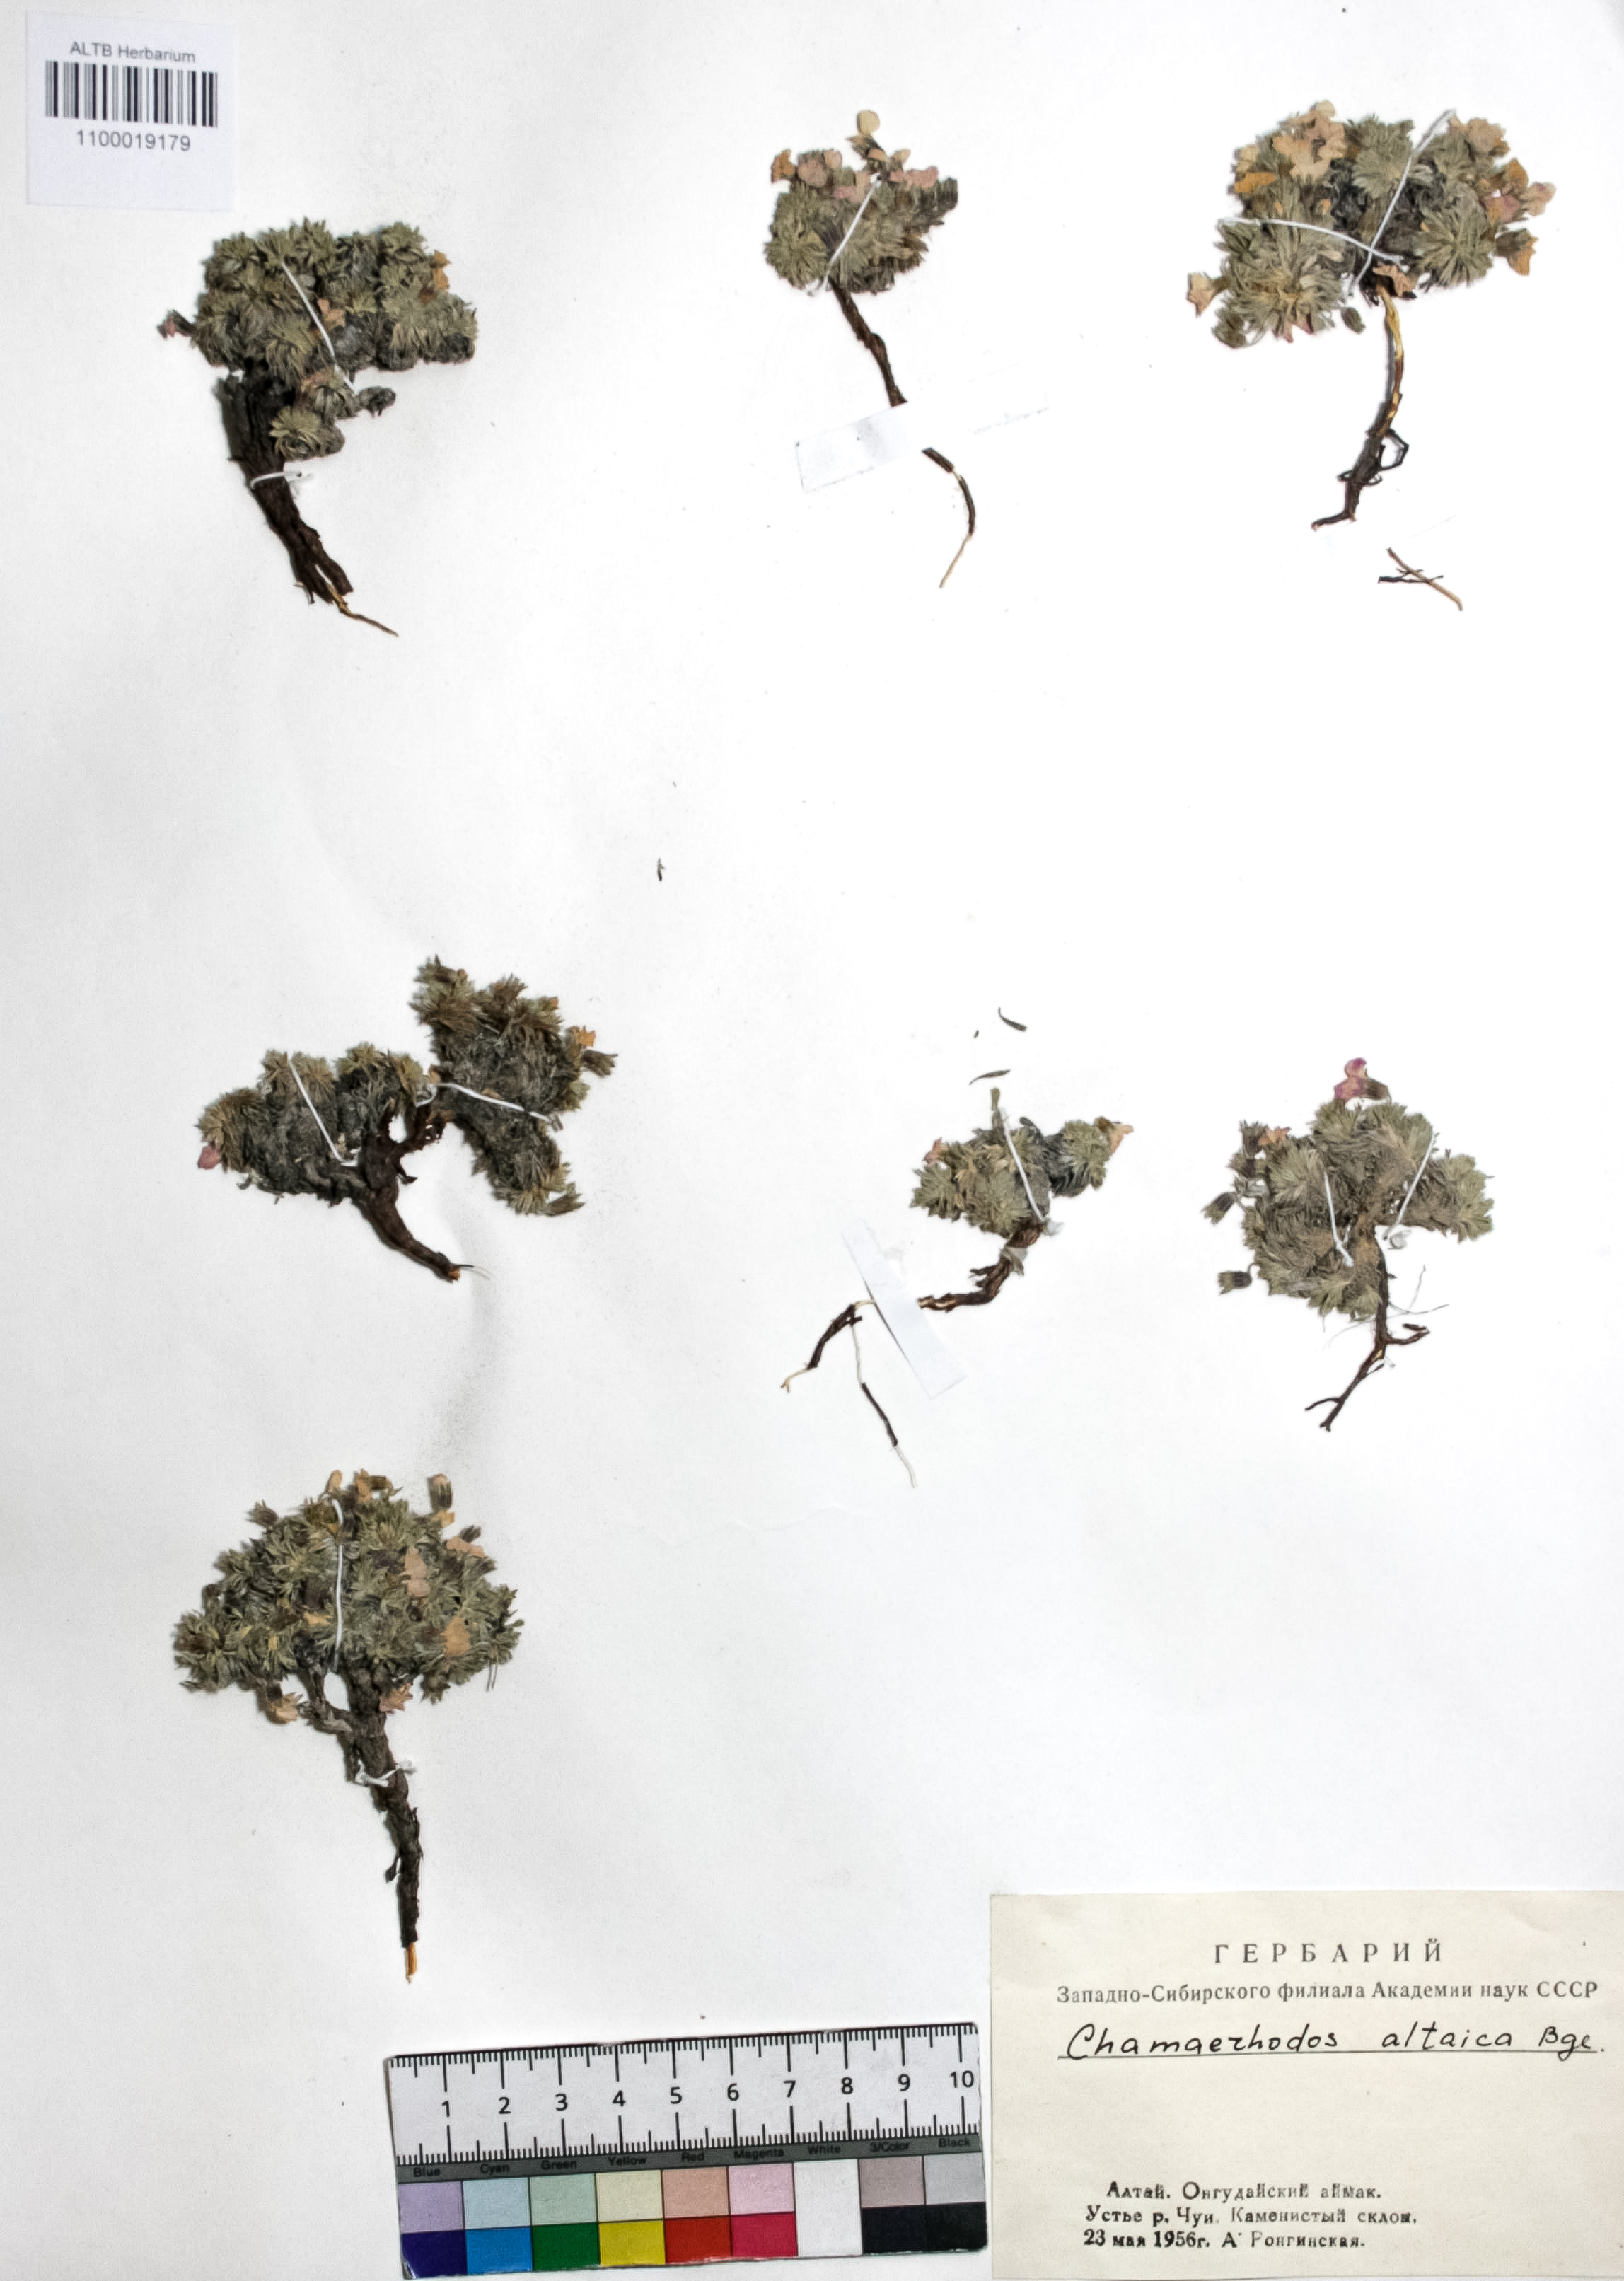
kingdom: Plantae
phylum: Tracheophyta
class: Magnoliopsida
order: Rosales
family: Rosaceae
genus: Chamaerhodos
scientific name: Chamaerhodos altaica
